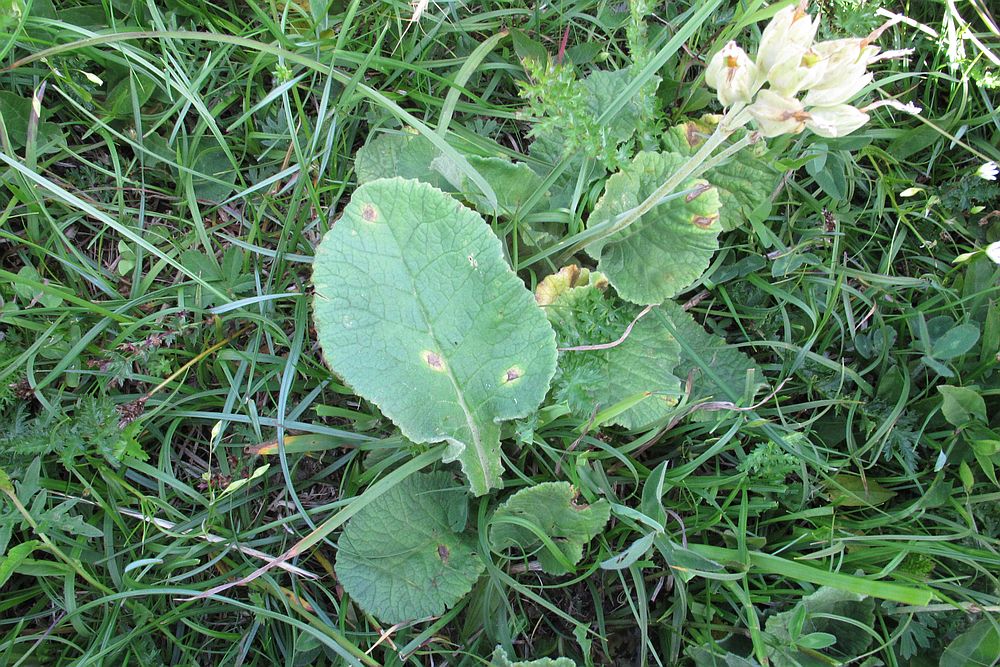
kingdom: Fungi
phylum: Basidiomycota
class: Pucciniomycetes
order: Pucciniales
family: Pucciniaceae
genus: Puccinia
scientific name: Puccinia primulae
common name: Primrose rust
